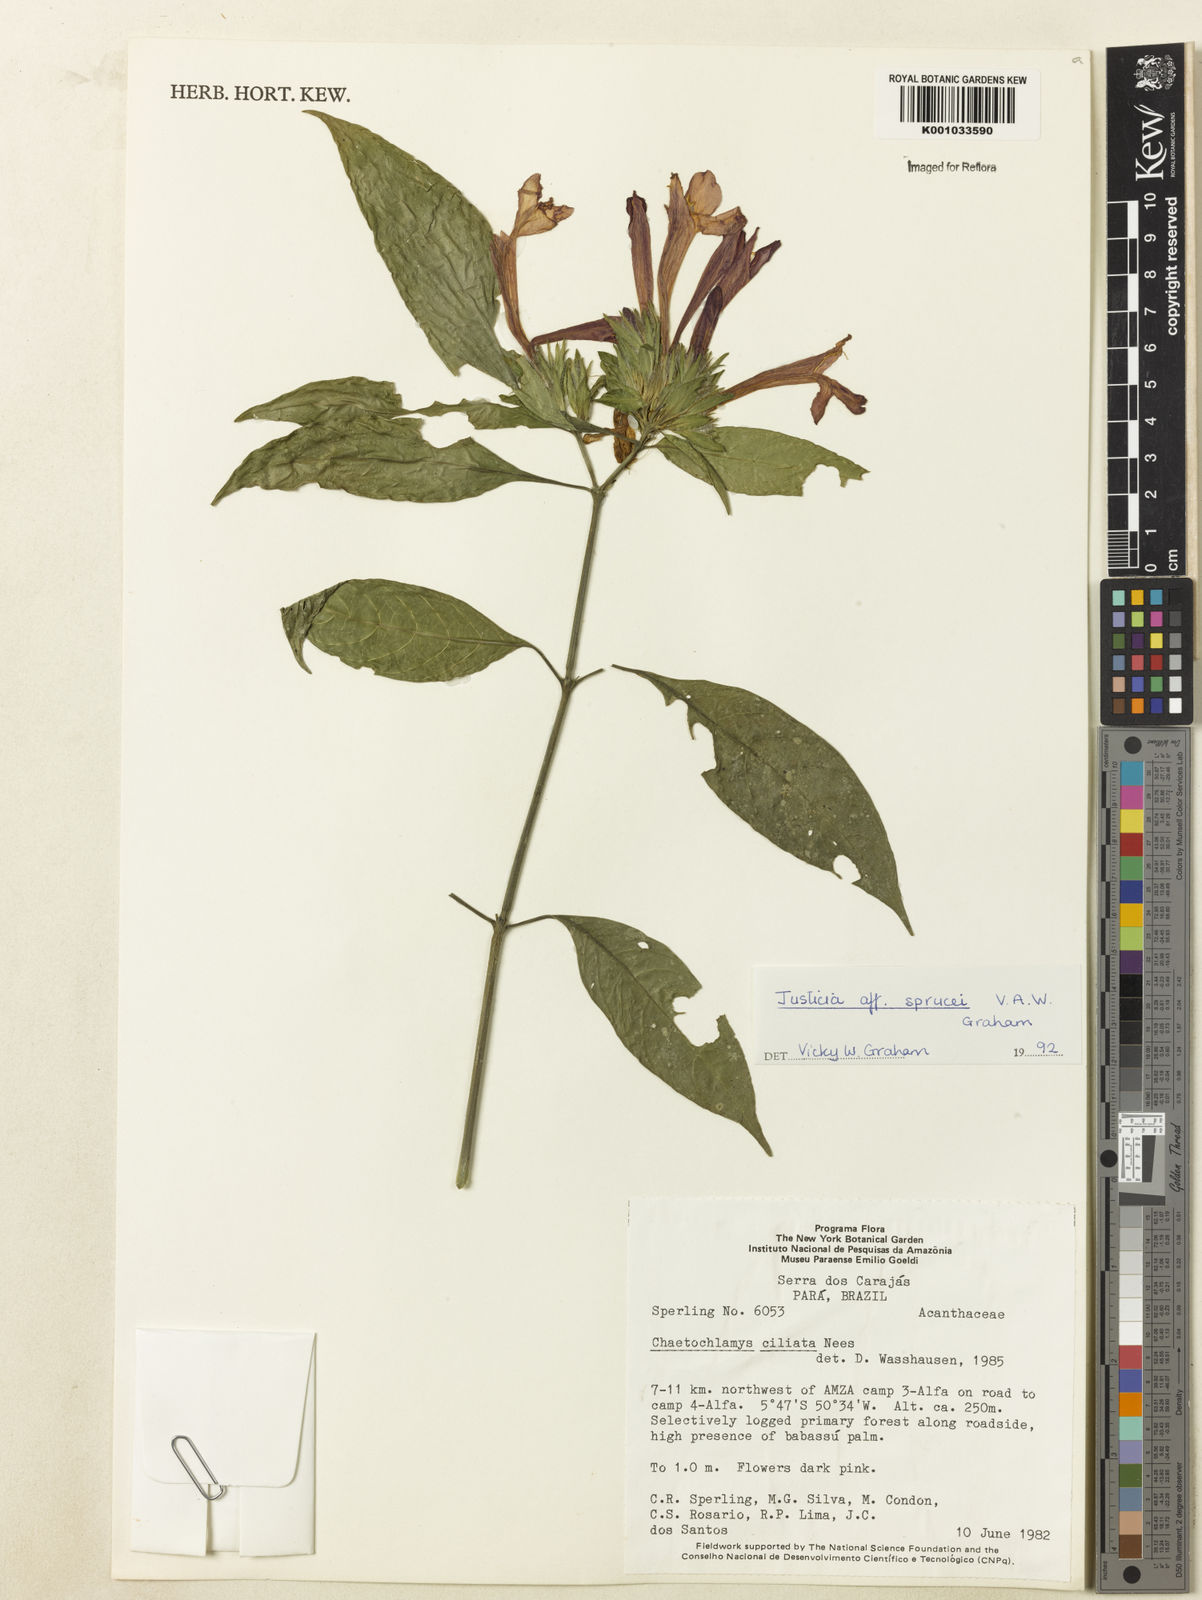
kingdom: Plantae
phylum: Tracheophyta
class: Magnoliopsida
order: Lamiales
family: Acanthaceae
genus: Justicia
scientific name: Justicia
